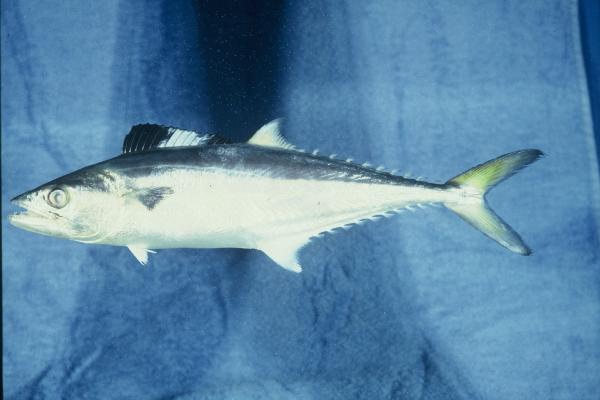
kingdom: Animalia
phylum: Chordata
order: Perciformes
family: Scombridae
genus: Scomberomorus
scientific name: Scomberomorus commerson
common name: Narrow-barred spanish mackerel
